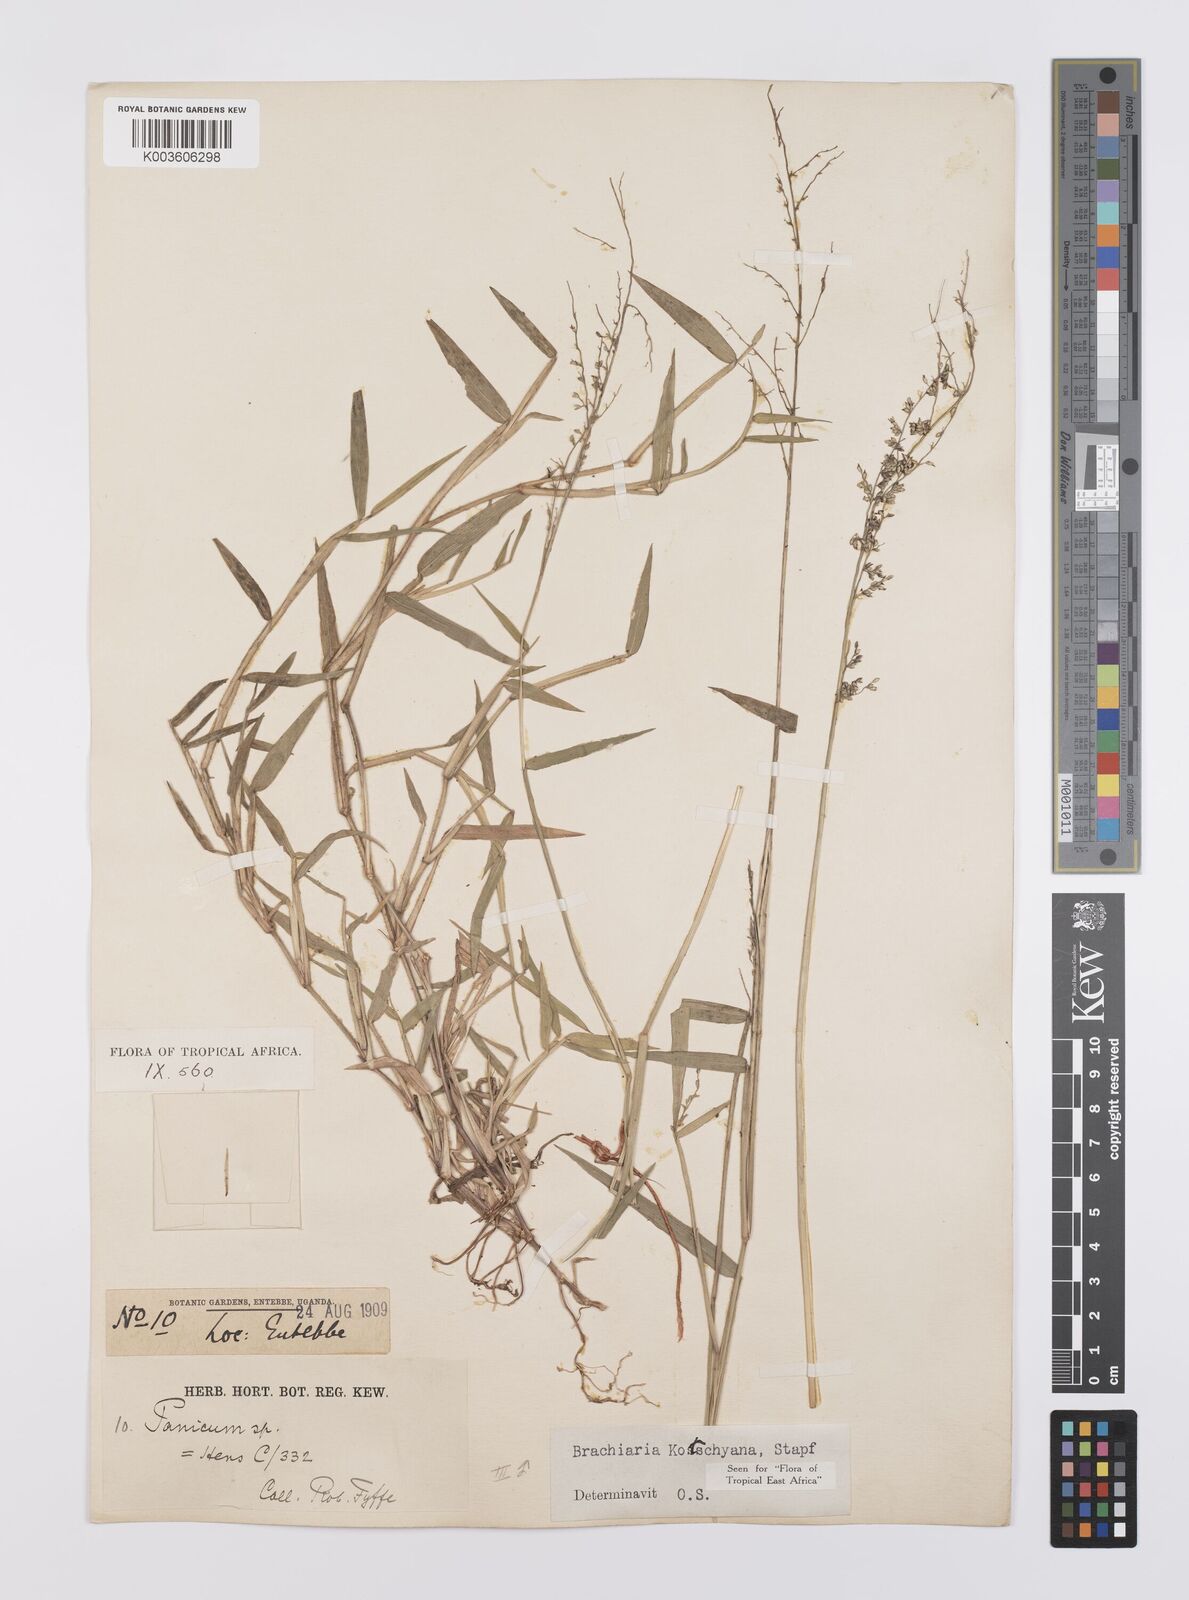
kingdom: Plantae
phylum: Tracheophyta
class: Liliopsida
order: Poales
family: Poaceae
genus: Urochloa
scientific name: Urochloa comata
